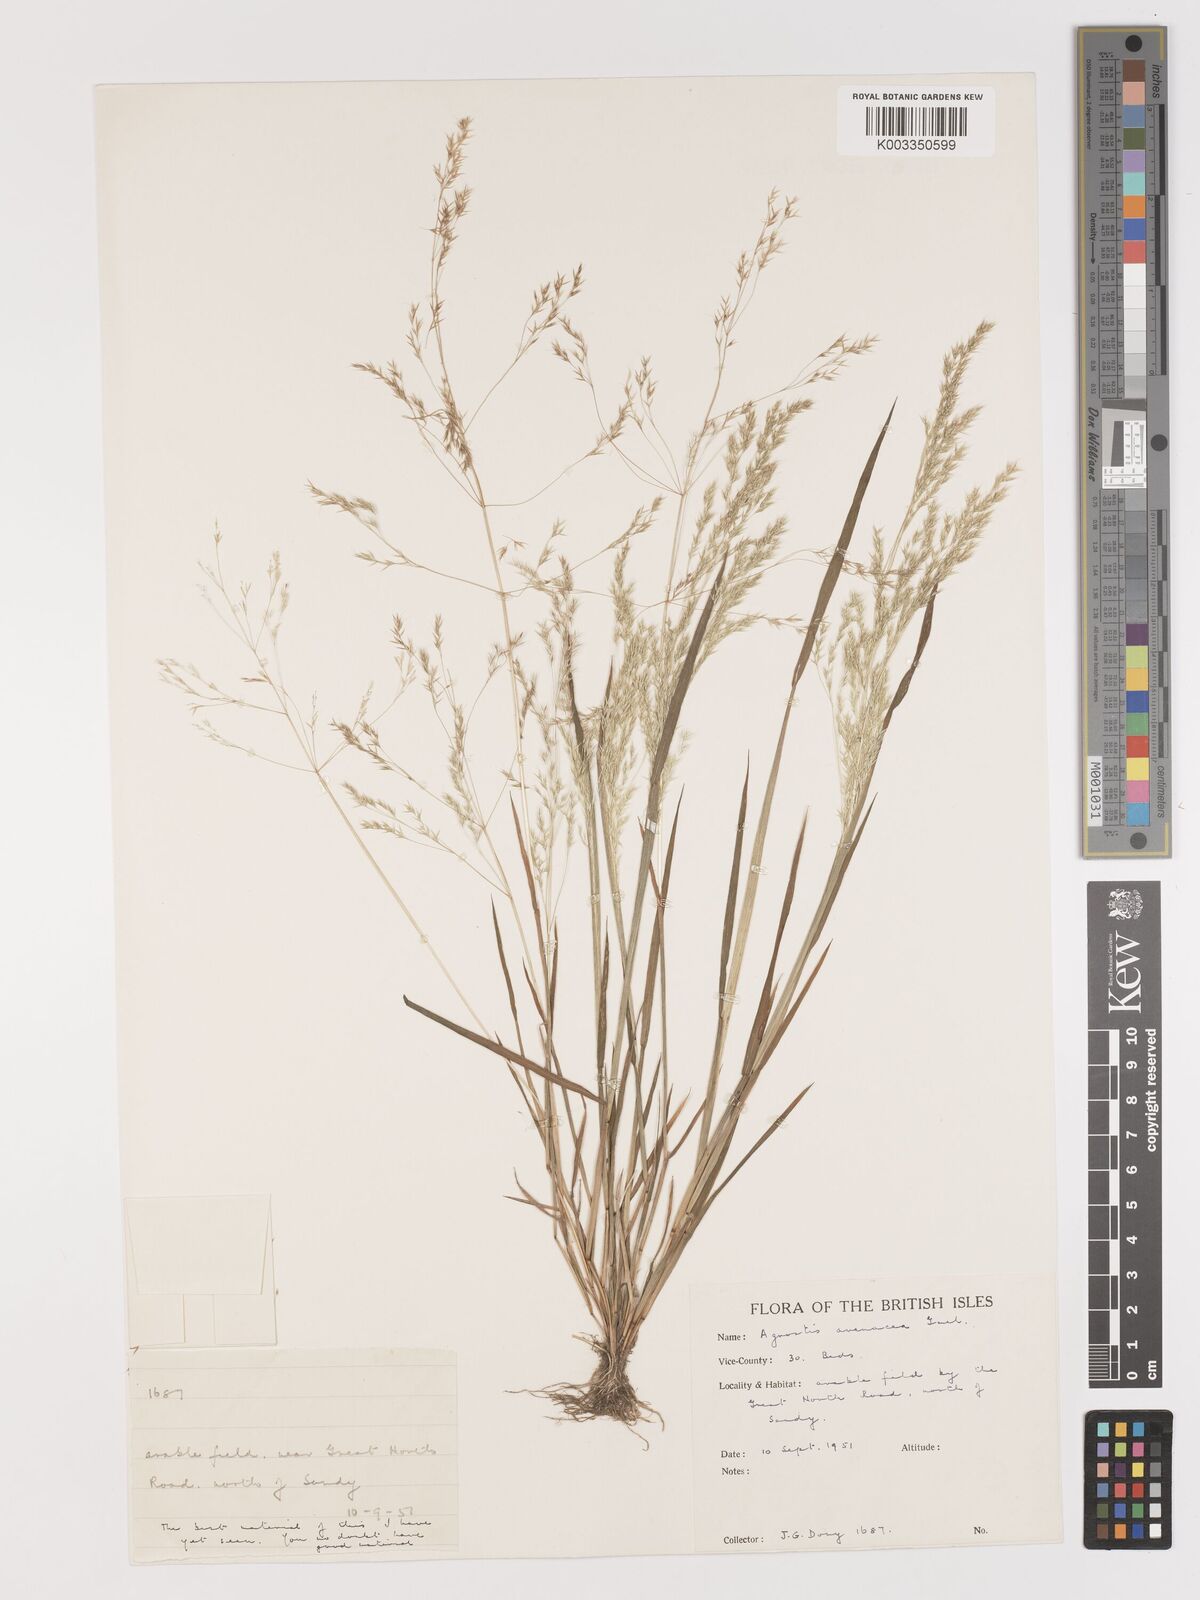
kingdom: Plantae
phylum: Tracheophyta
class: Liliopsida
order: Poales
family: Poaceae
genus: Lachnagrostis
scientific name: Lachnagrostis filiformis
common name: Bentgrass
